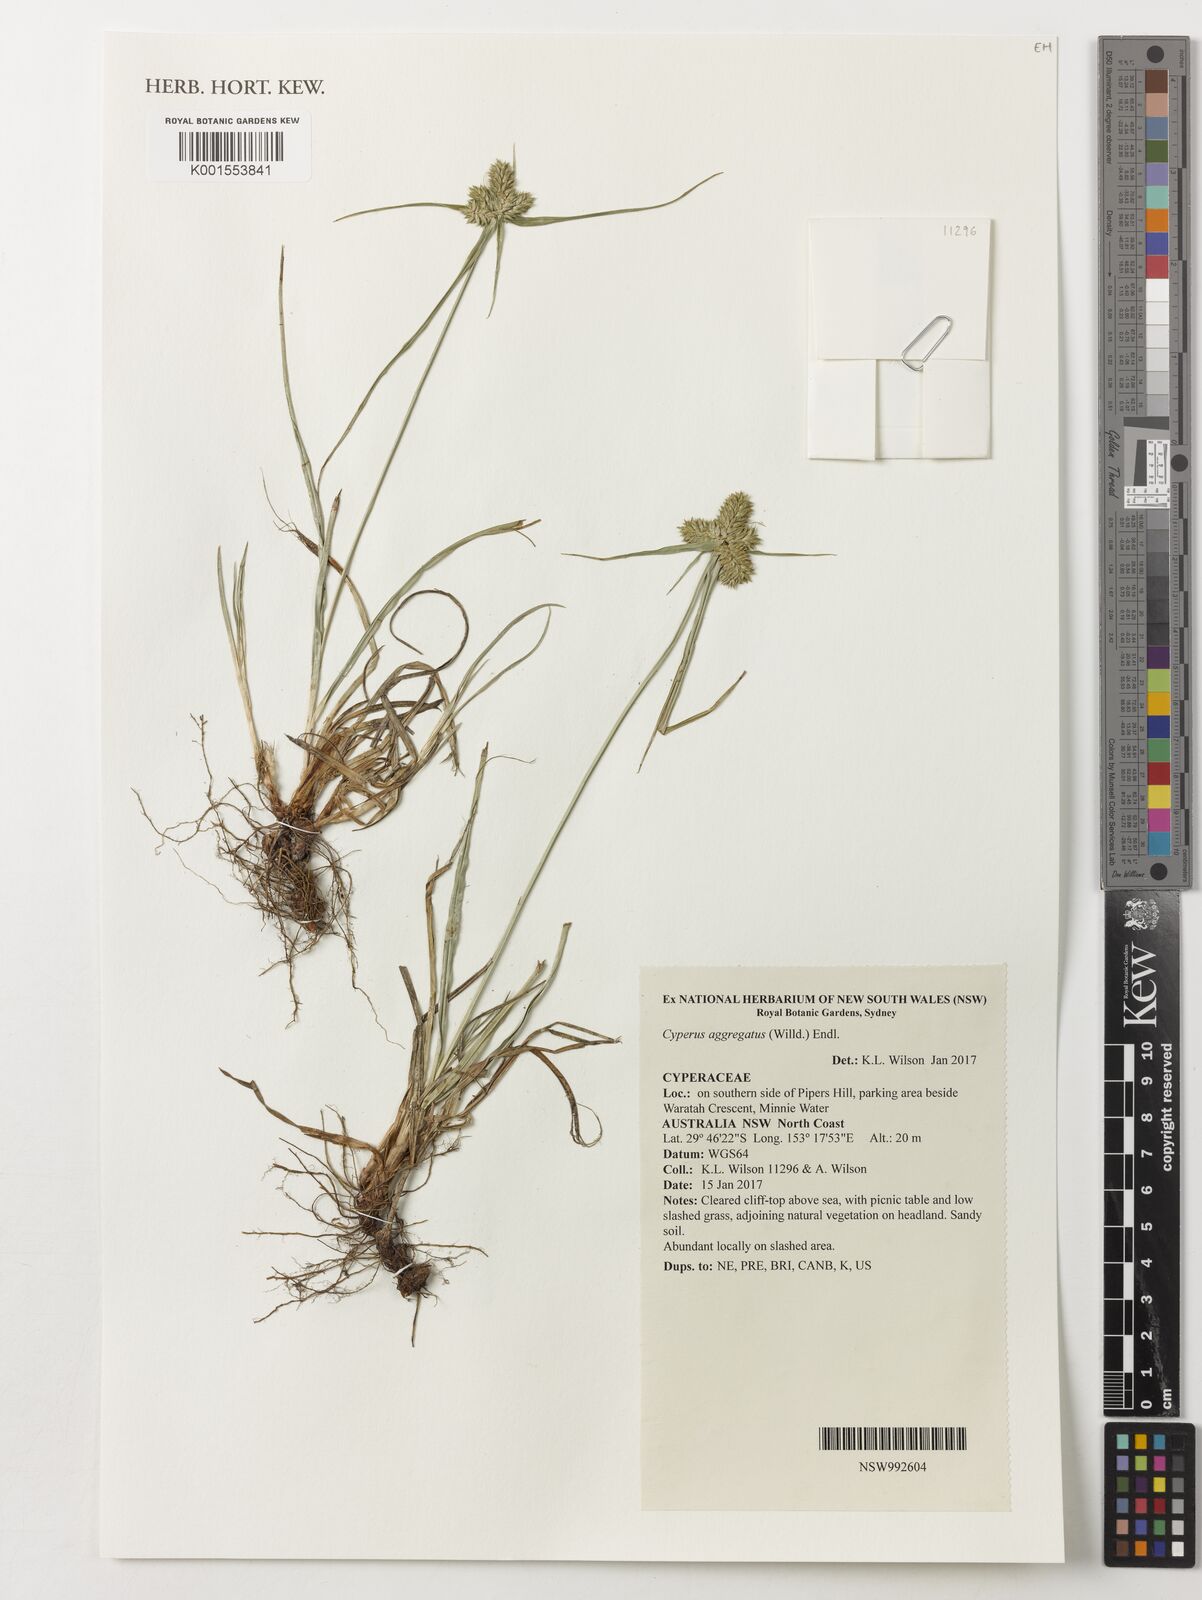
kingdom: Plantae
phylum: Tracheophyta
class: Liliopsida
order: Poales
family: Cyperaceae
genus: Cyperus
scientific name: Cyperus aggregatus
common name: Inflatedscale flatsedge
